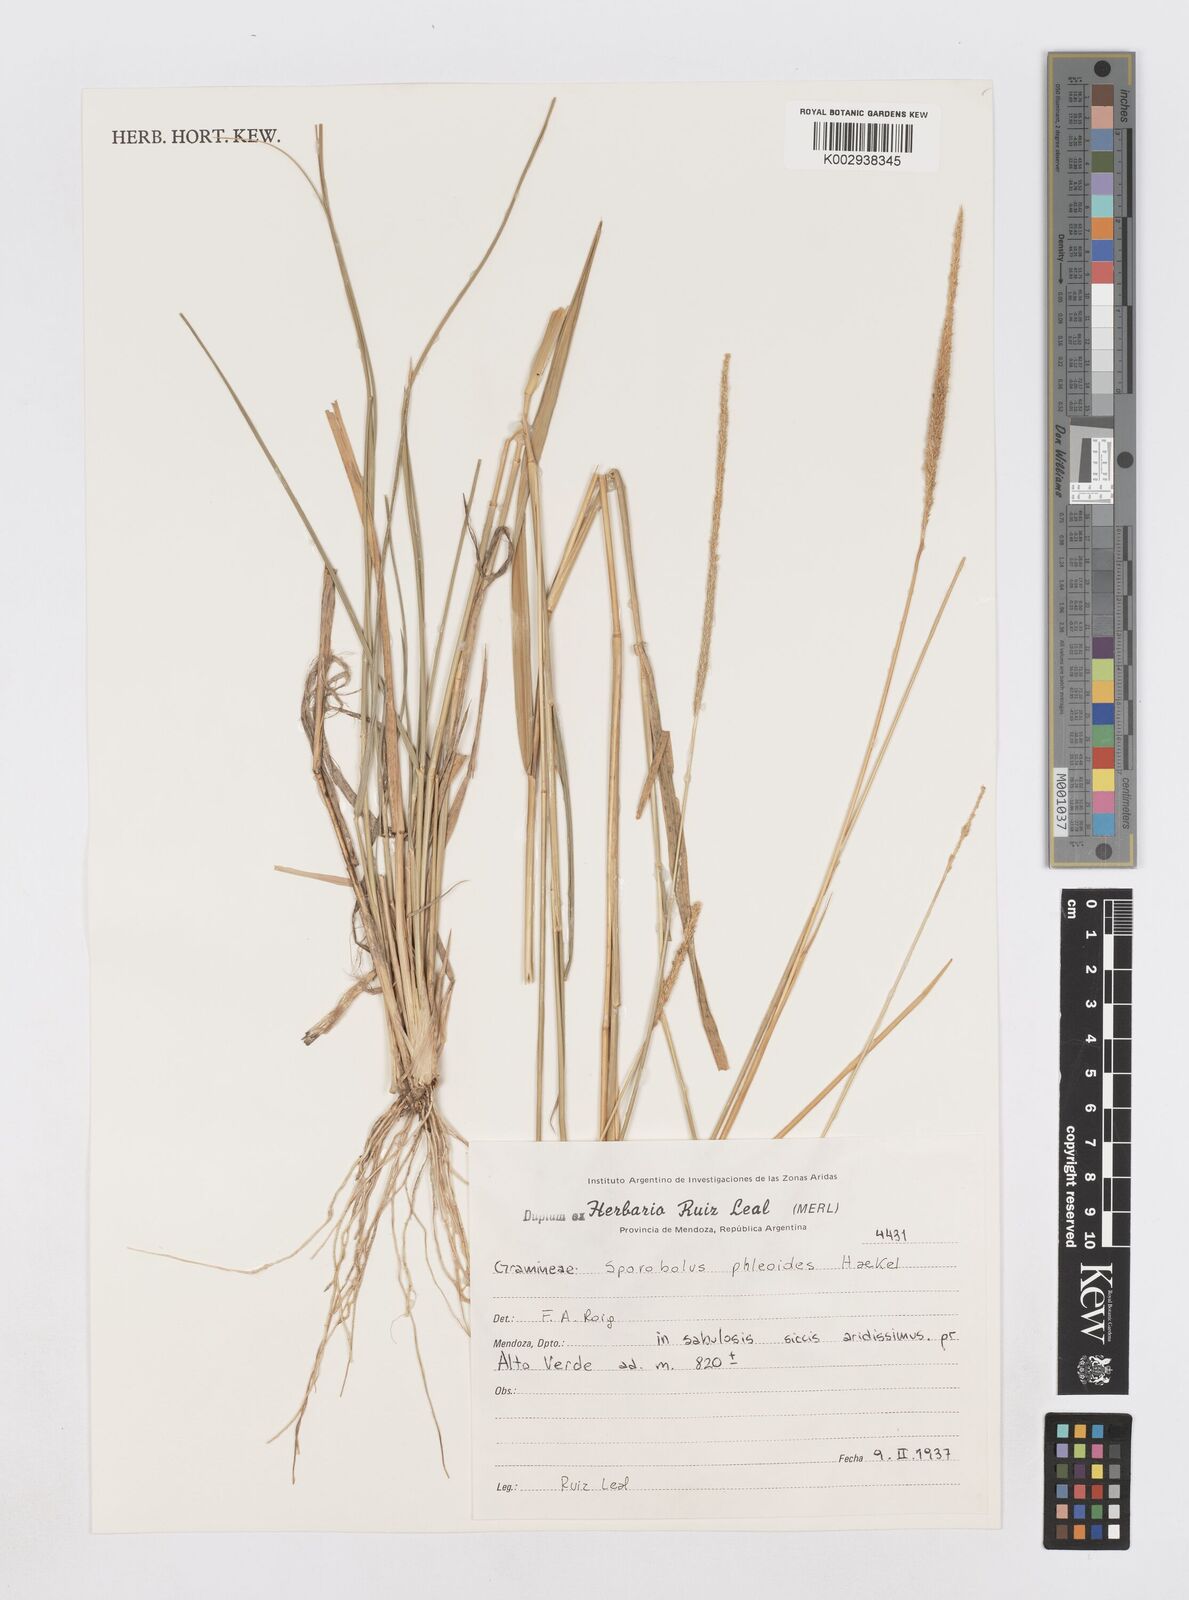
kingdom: Plantae
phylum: Tracheophyta
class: Liliopsida
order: Poales
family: Poaceae
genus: Sporobolus
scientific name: Sporobolus phleoides
